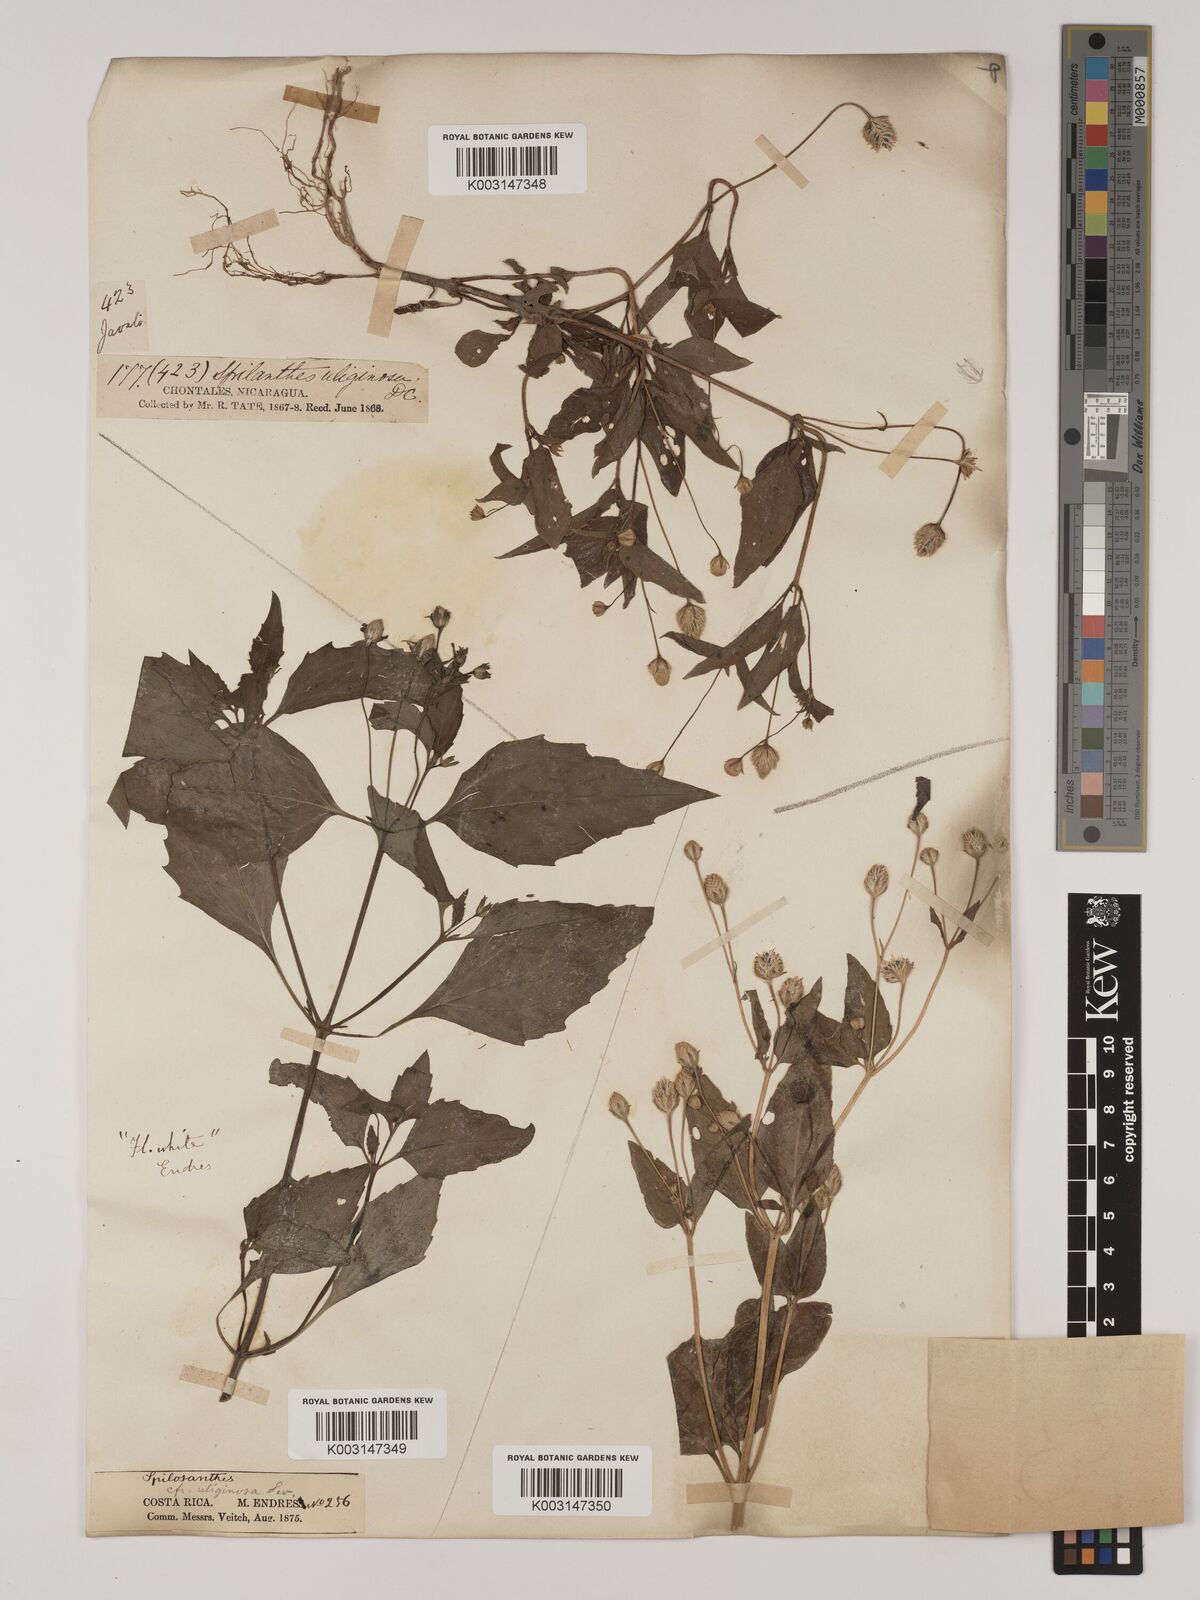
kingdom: Plantae
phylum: Tracheophyta
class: Magnoliopsida
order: Asterales
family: Asteraceae
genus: Acmella
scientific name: Acmella radicans
